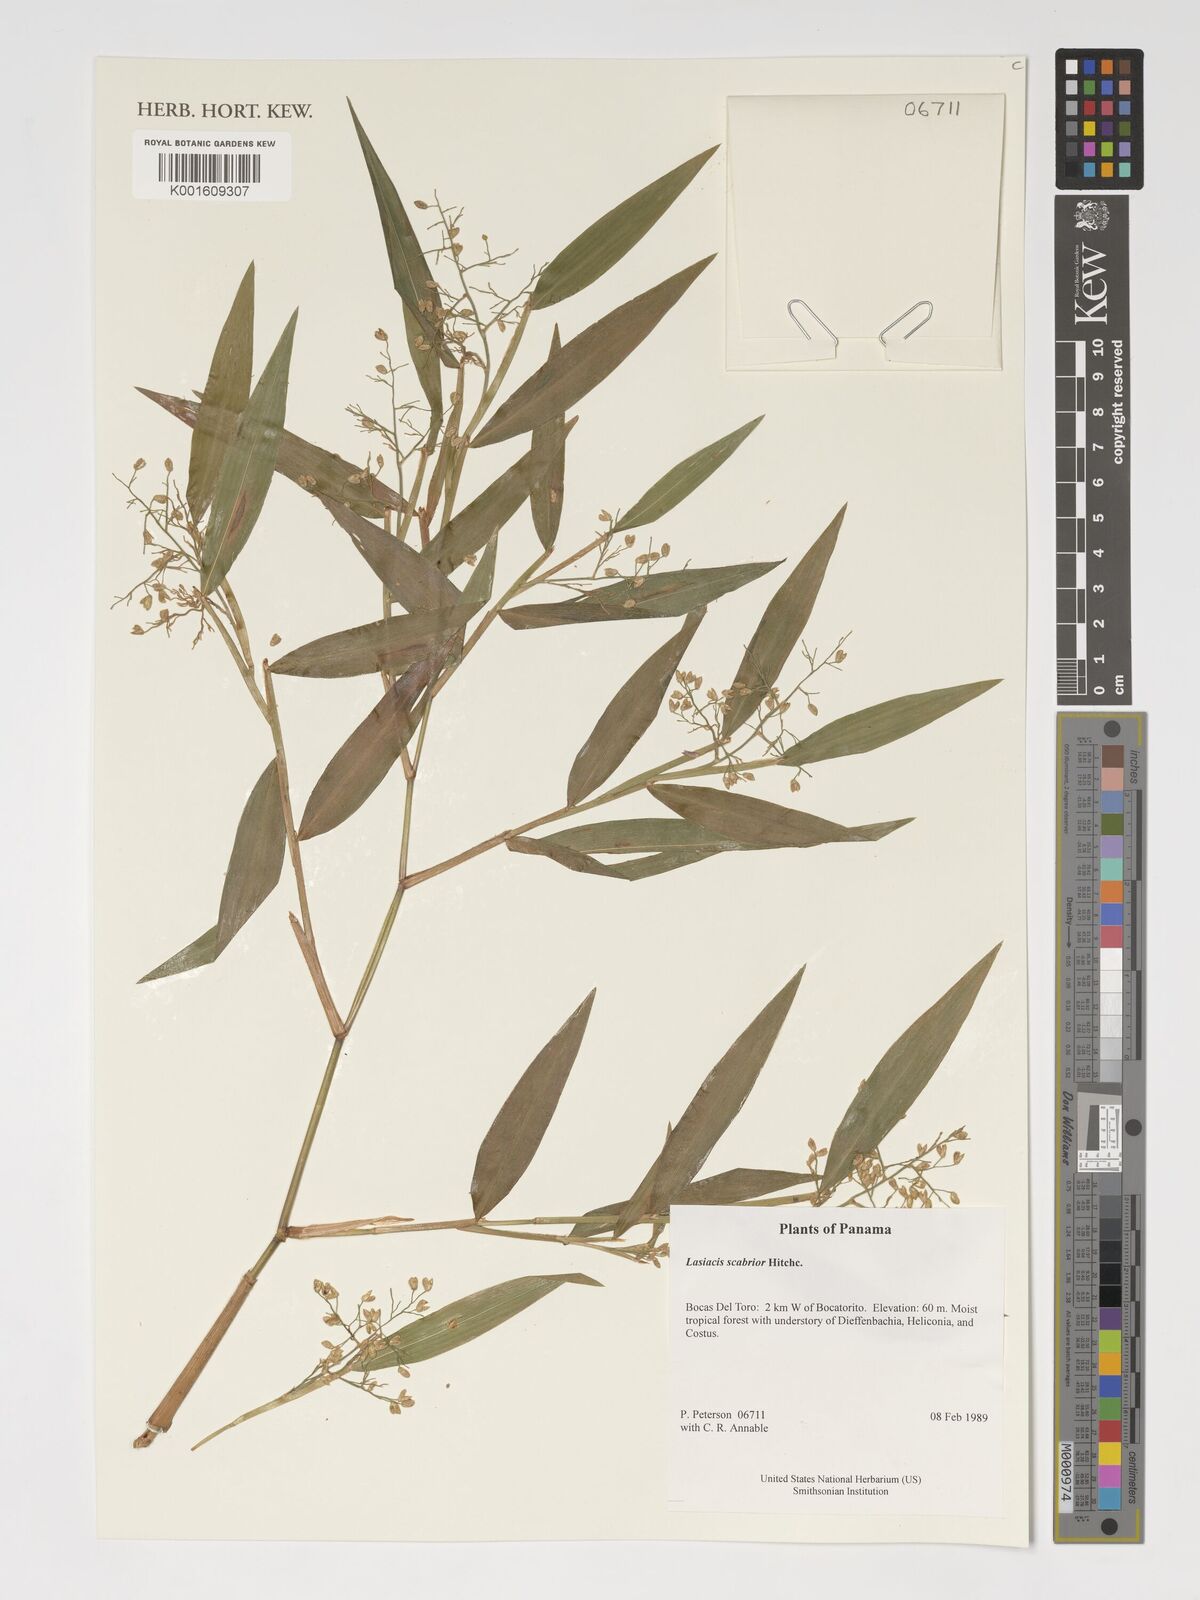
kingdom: Plantae
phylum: Tracheophyta
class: Liliopsida
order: Poales
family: Poaceae
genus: Lasiacis
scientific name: Lasiacis scabrior
